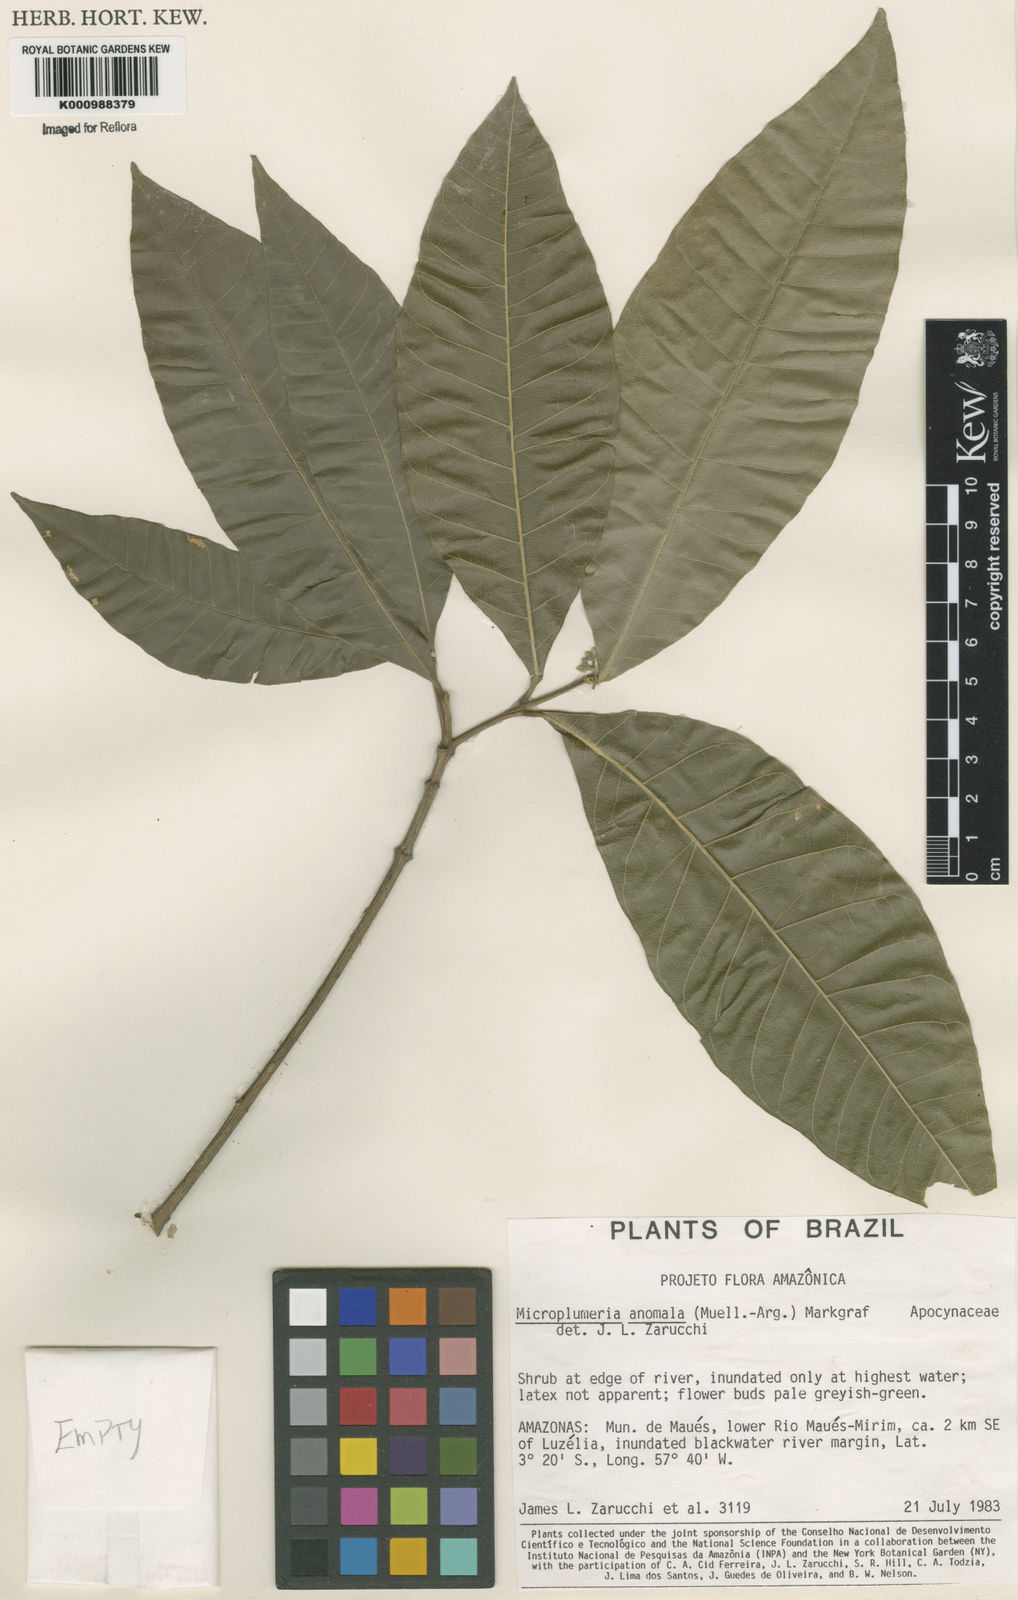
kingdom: Plantae
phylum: Tracheophyta
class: Magnoliopsida
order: Gentianales
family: Apocynaceae
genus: Microplumeria
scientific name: Microplumeria
